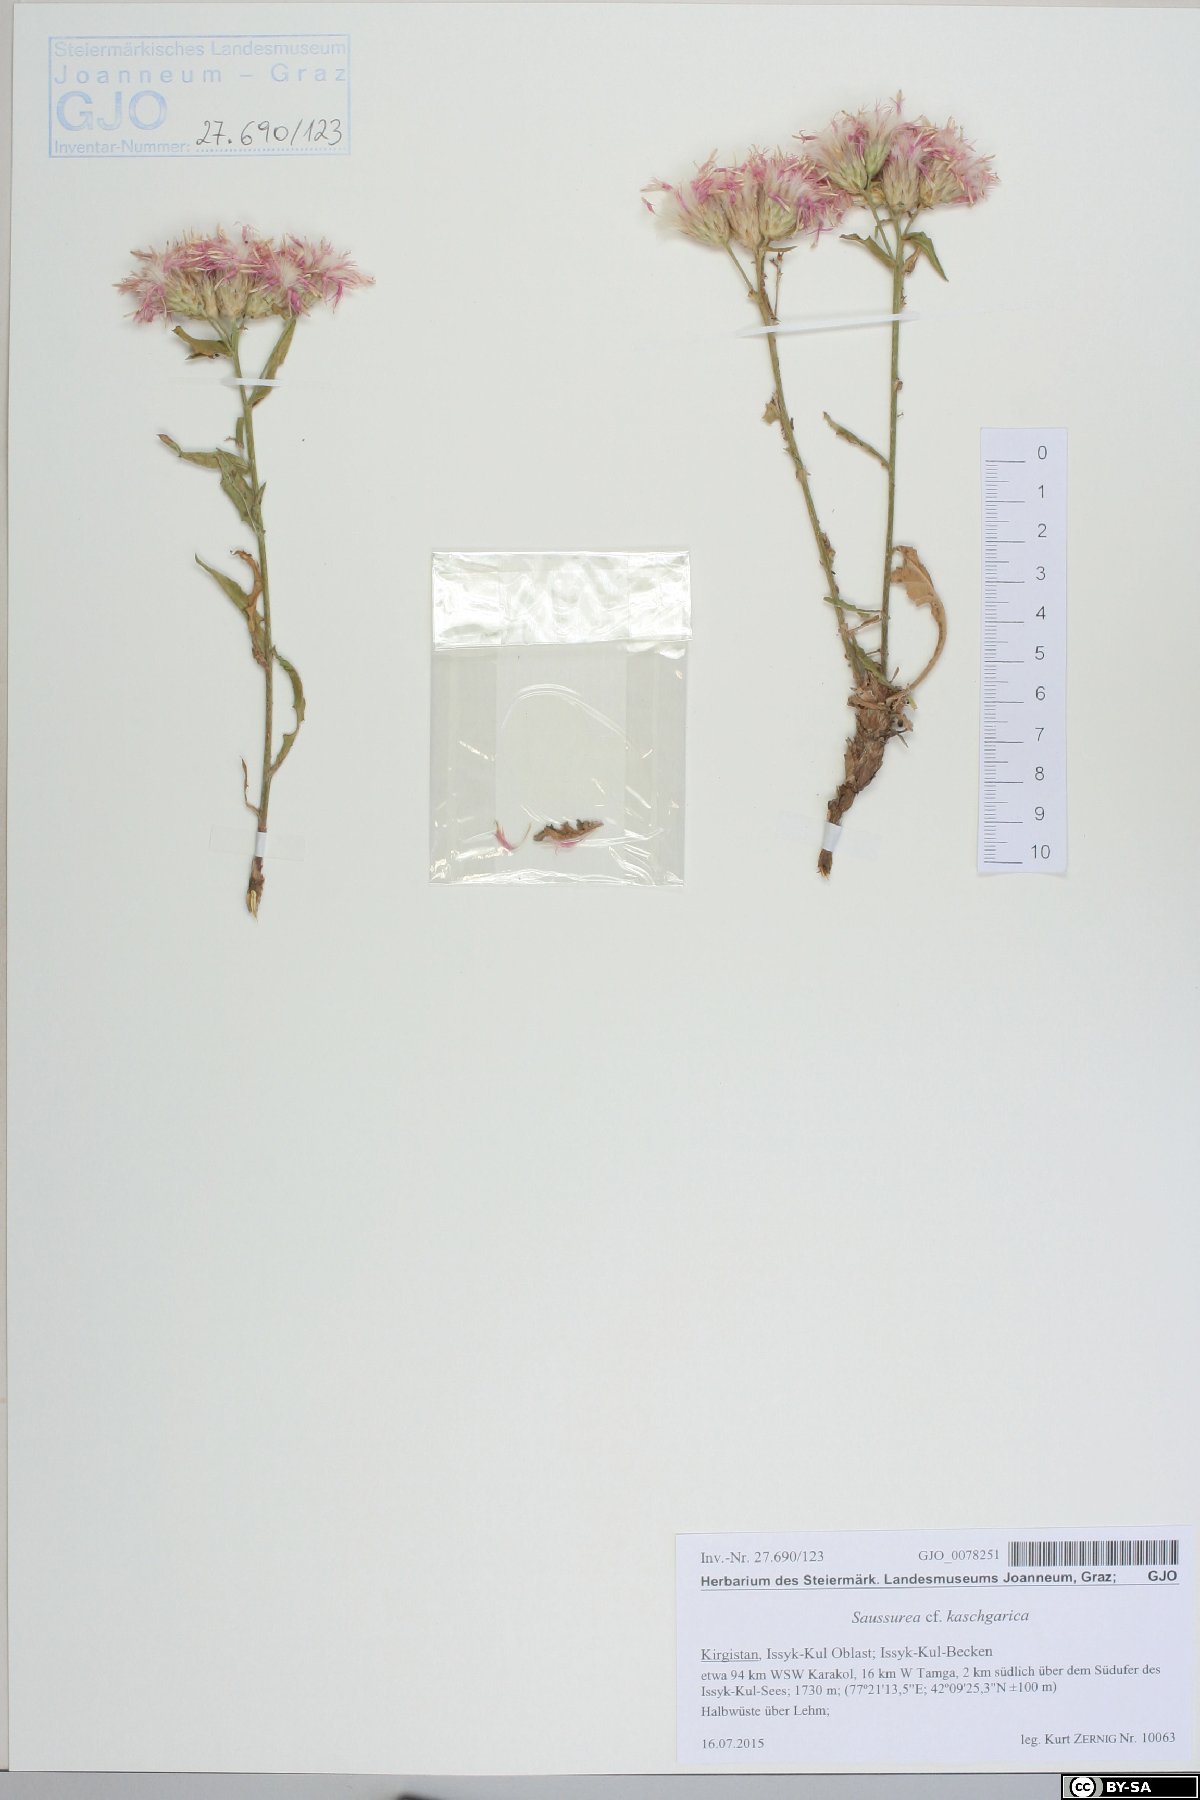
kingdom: Plantae
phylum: Tracheophyta
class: Magnoliopsida
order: Asterales
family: Asteraceae
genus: Saussurea
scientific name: Saussurea kaschgarica
